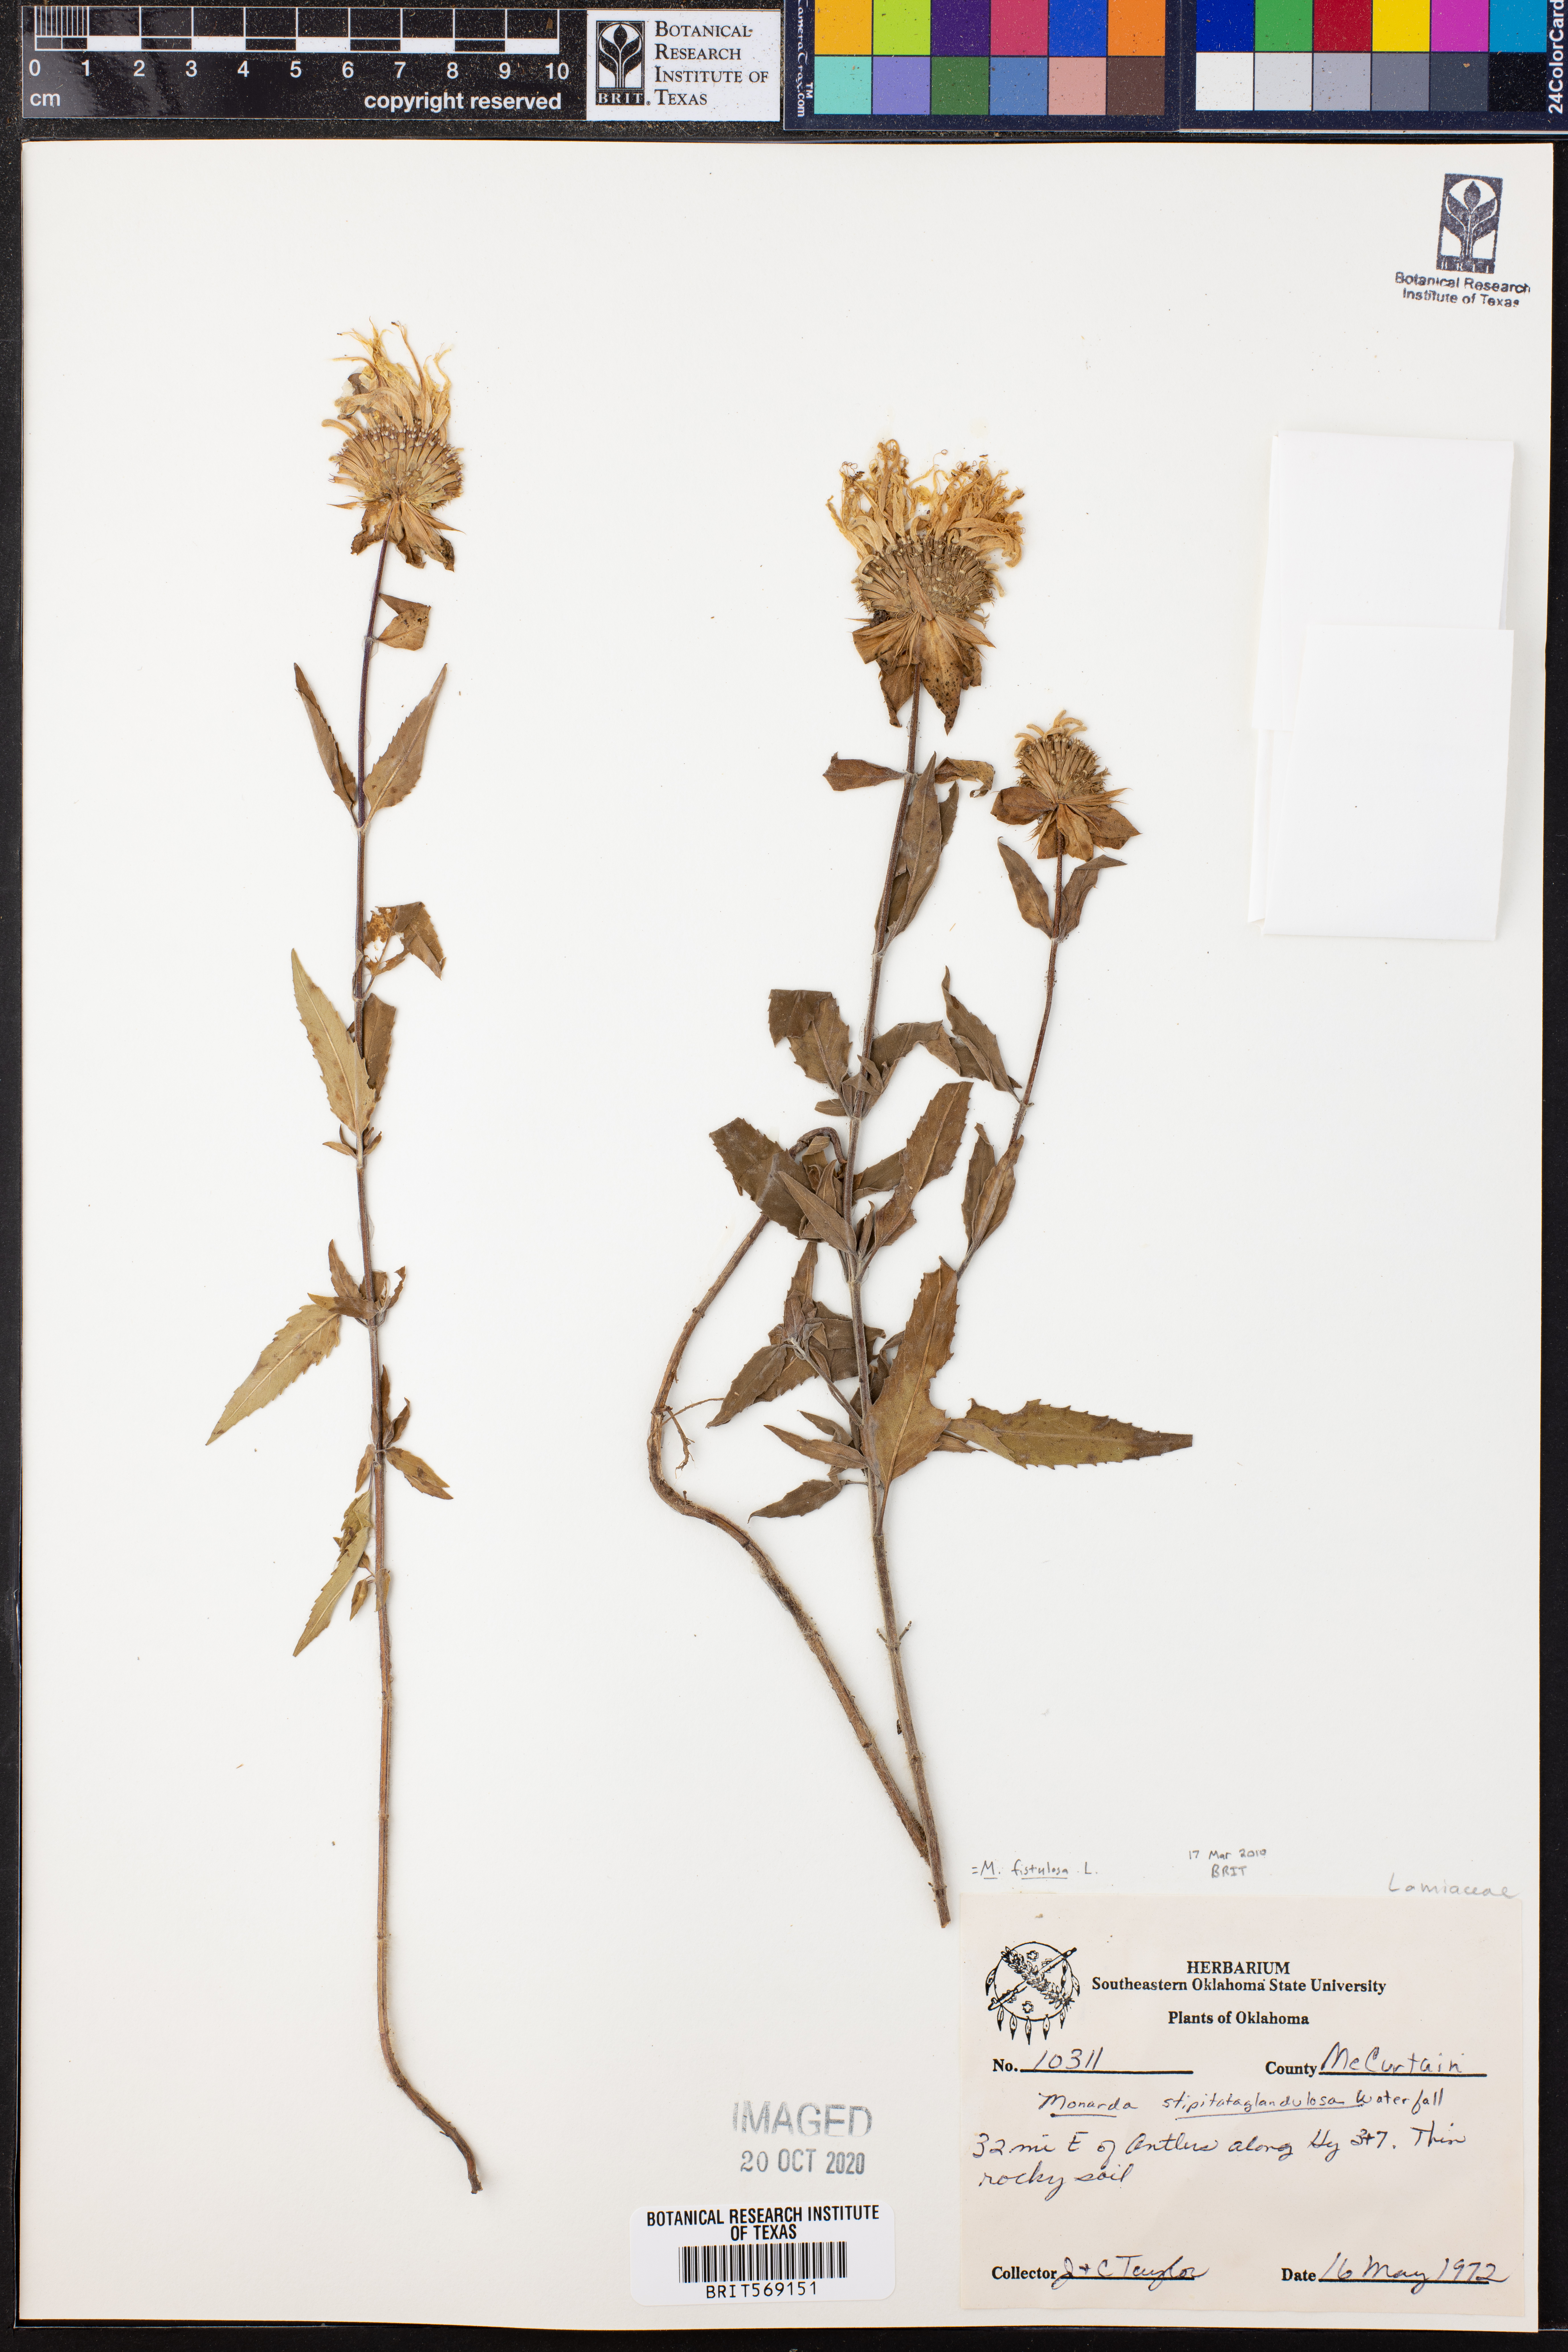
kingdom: Plantae
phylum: Tracheophyta
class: Magnoliopsida
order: Lamiales
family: Lamiaceae
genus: Monarda
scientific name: Monarda fistulosa
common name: Purple beebalm
